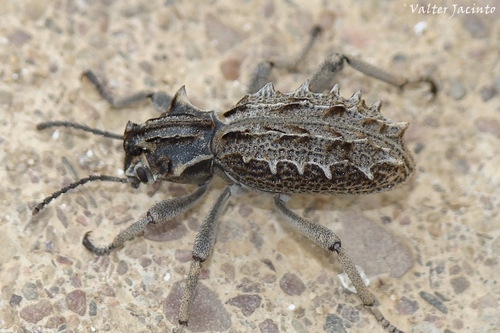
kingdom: Animalia
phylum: Arthropoda
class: Insecta
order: Coleoptera
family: Tenebrionidae
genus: Sepidium
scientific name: Sepidium bidentatum
